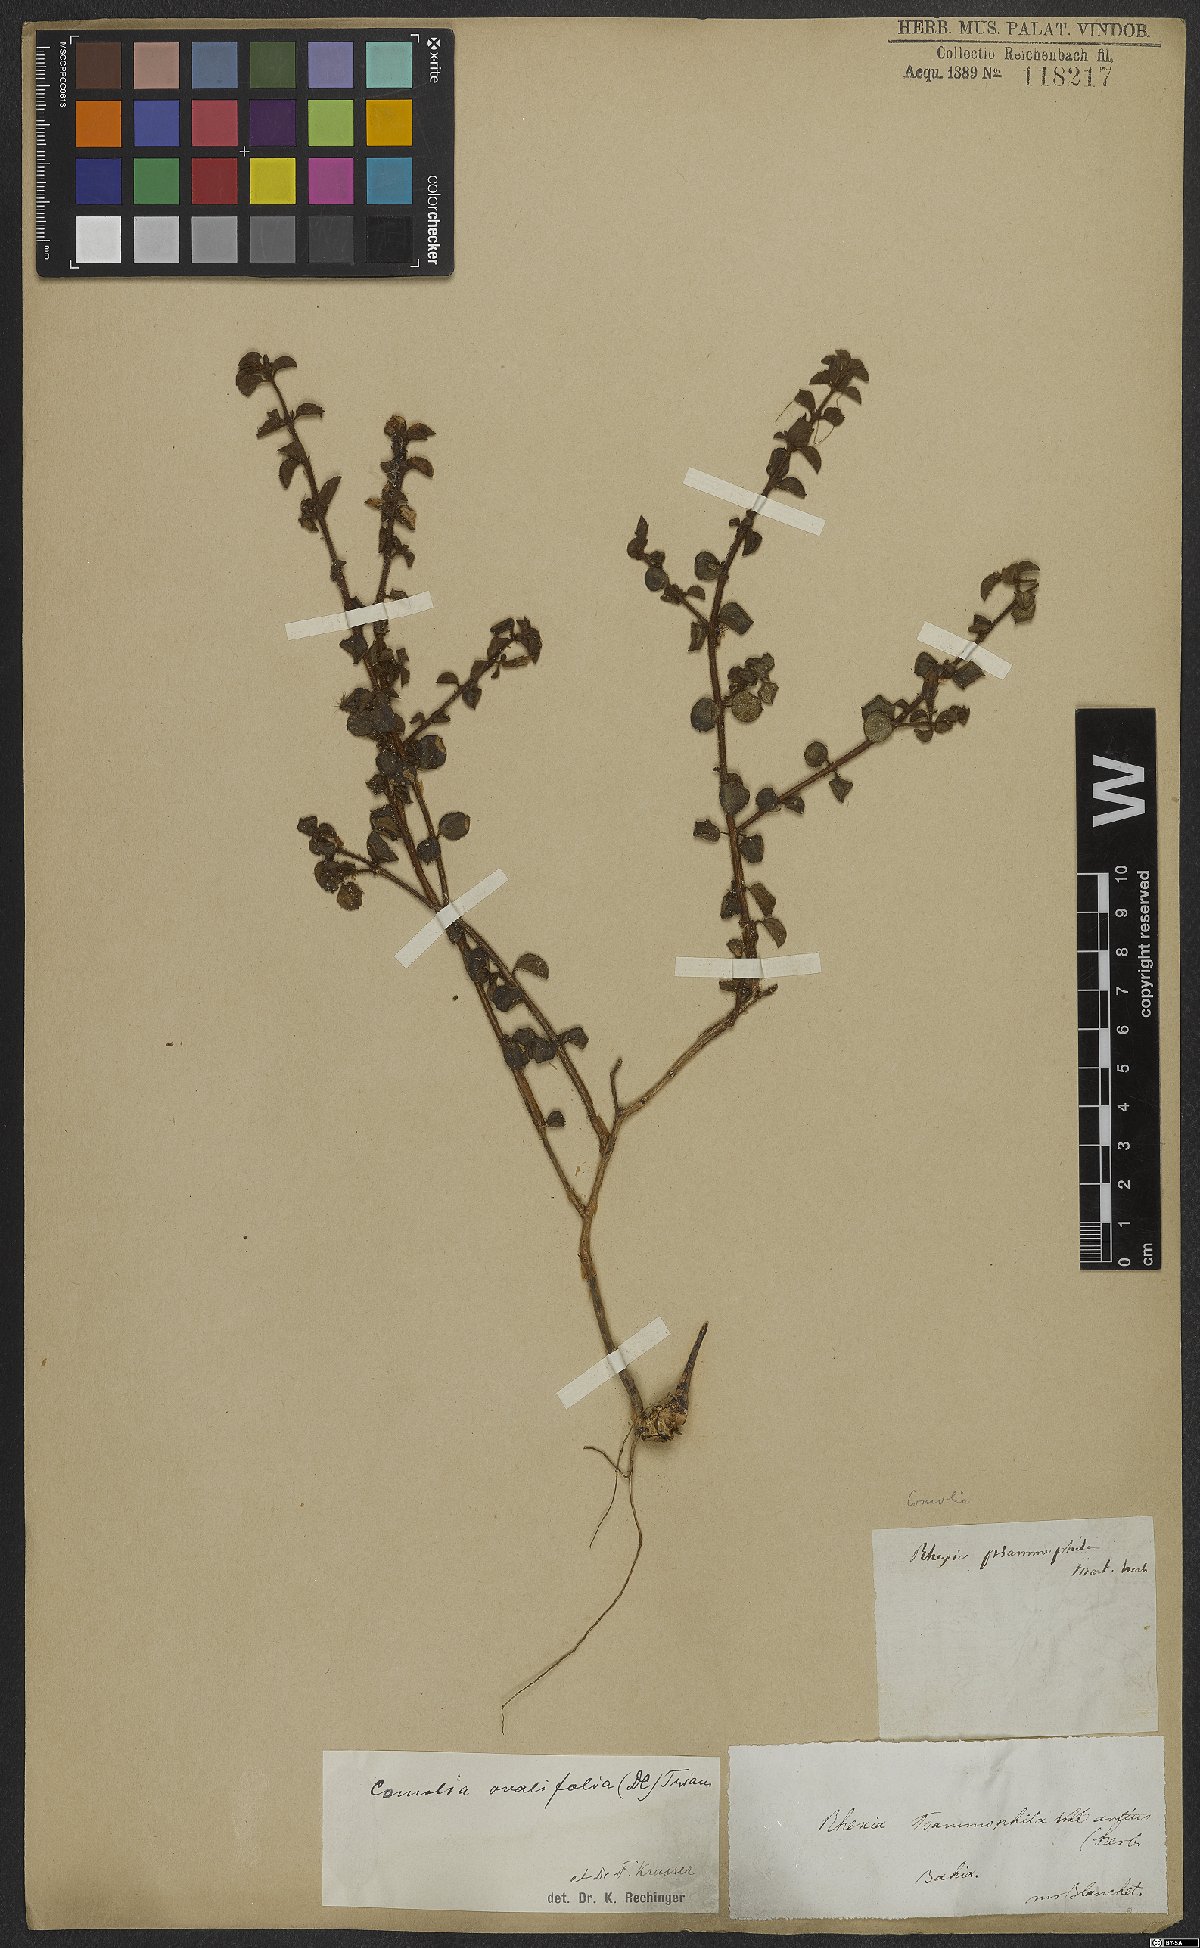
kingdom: Plantae
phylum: Tracheophyta
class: Magnoliopsida
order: Myrtales
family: Melastomataceae
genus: Comolia
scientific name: Comolia ovalifolia
